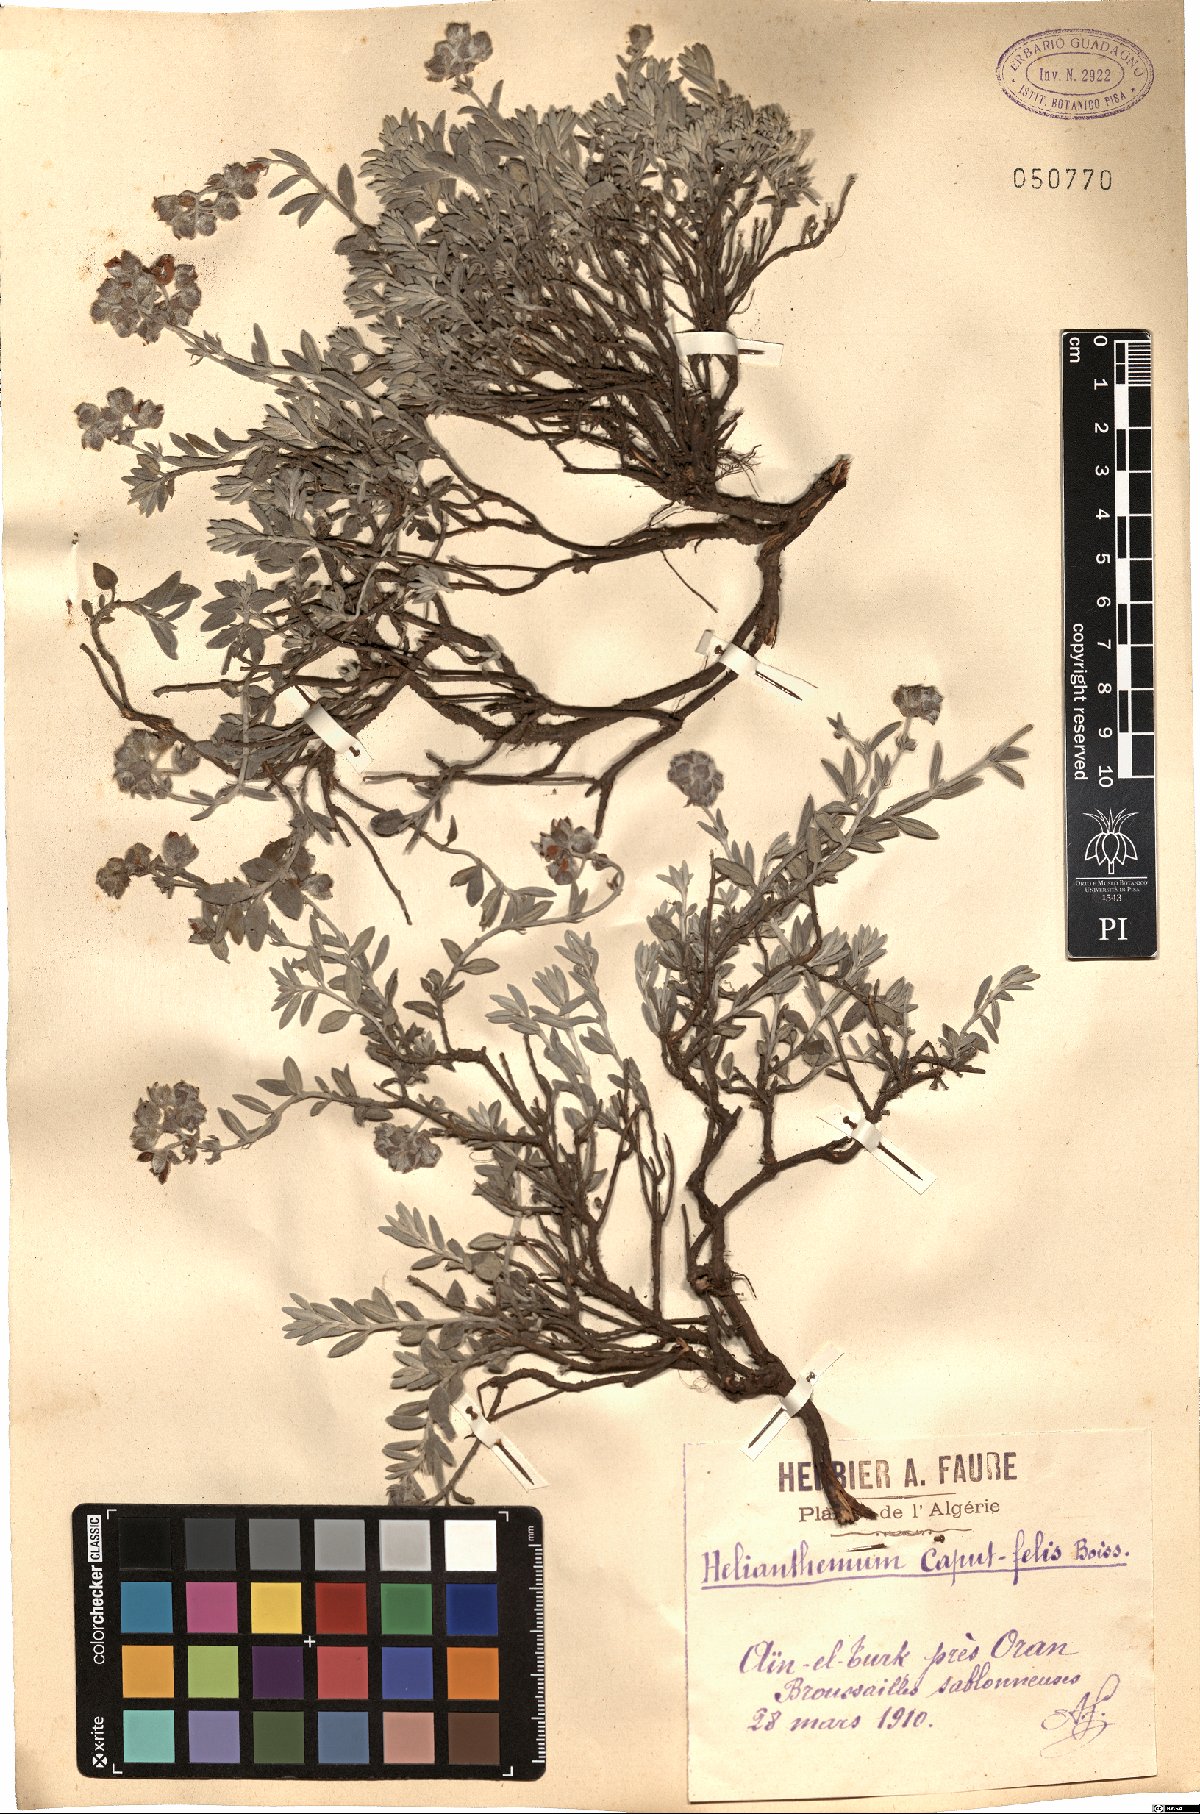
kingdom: Plantae
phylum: Tracheophyta
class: Magnoliopsida
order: Malvales
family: Cistaceae
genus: Helianthemum
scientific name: Helianthemum caput-felis
